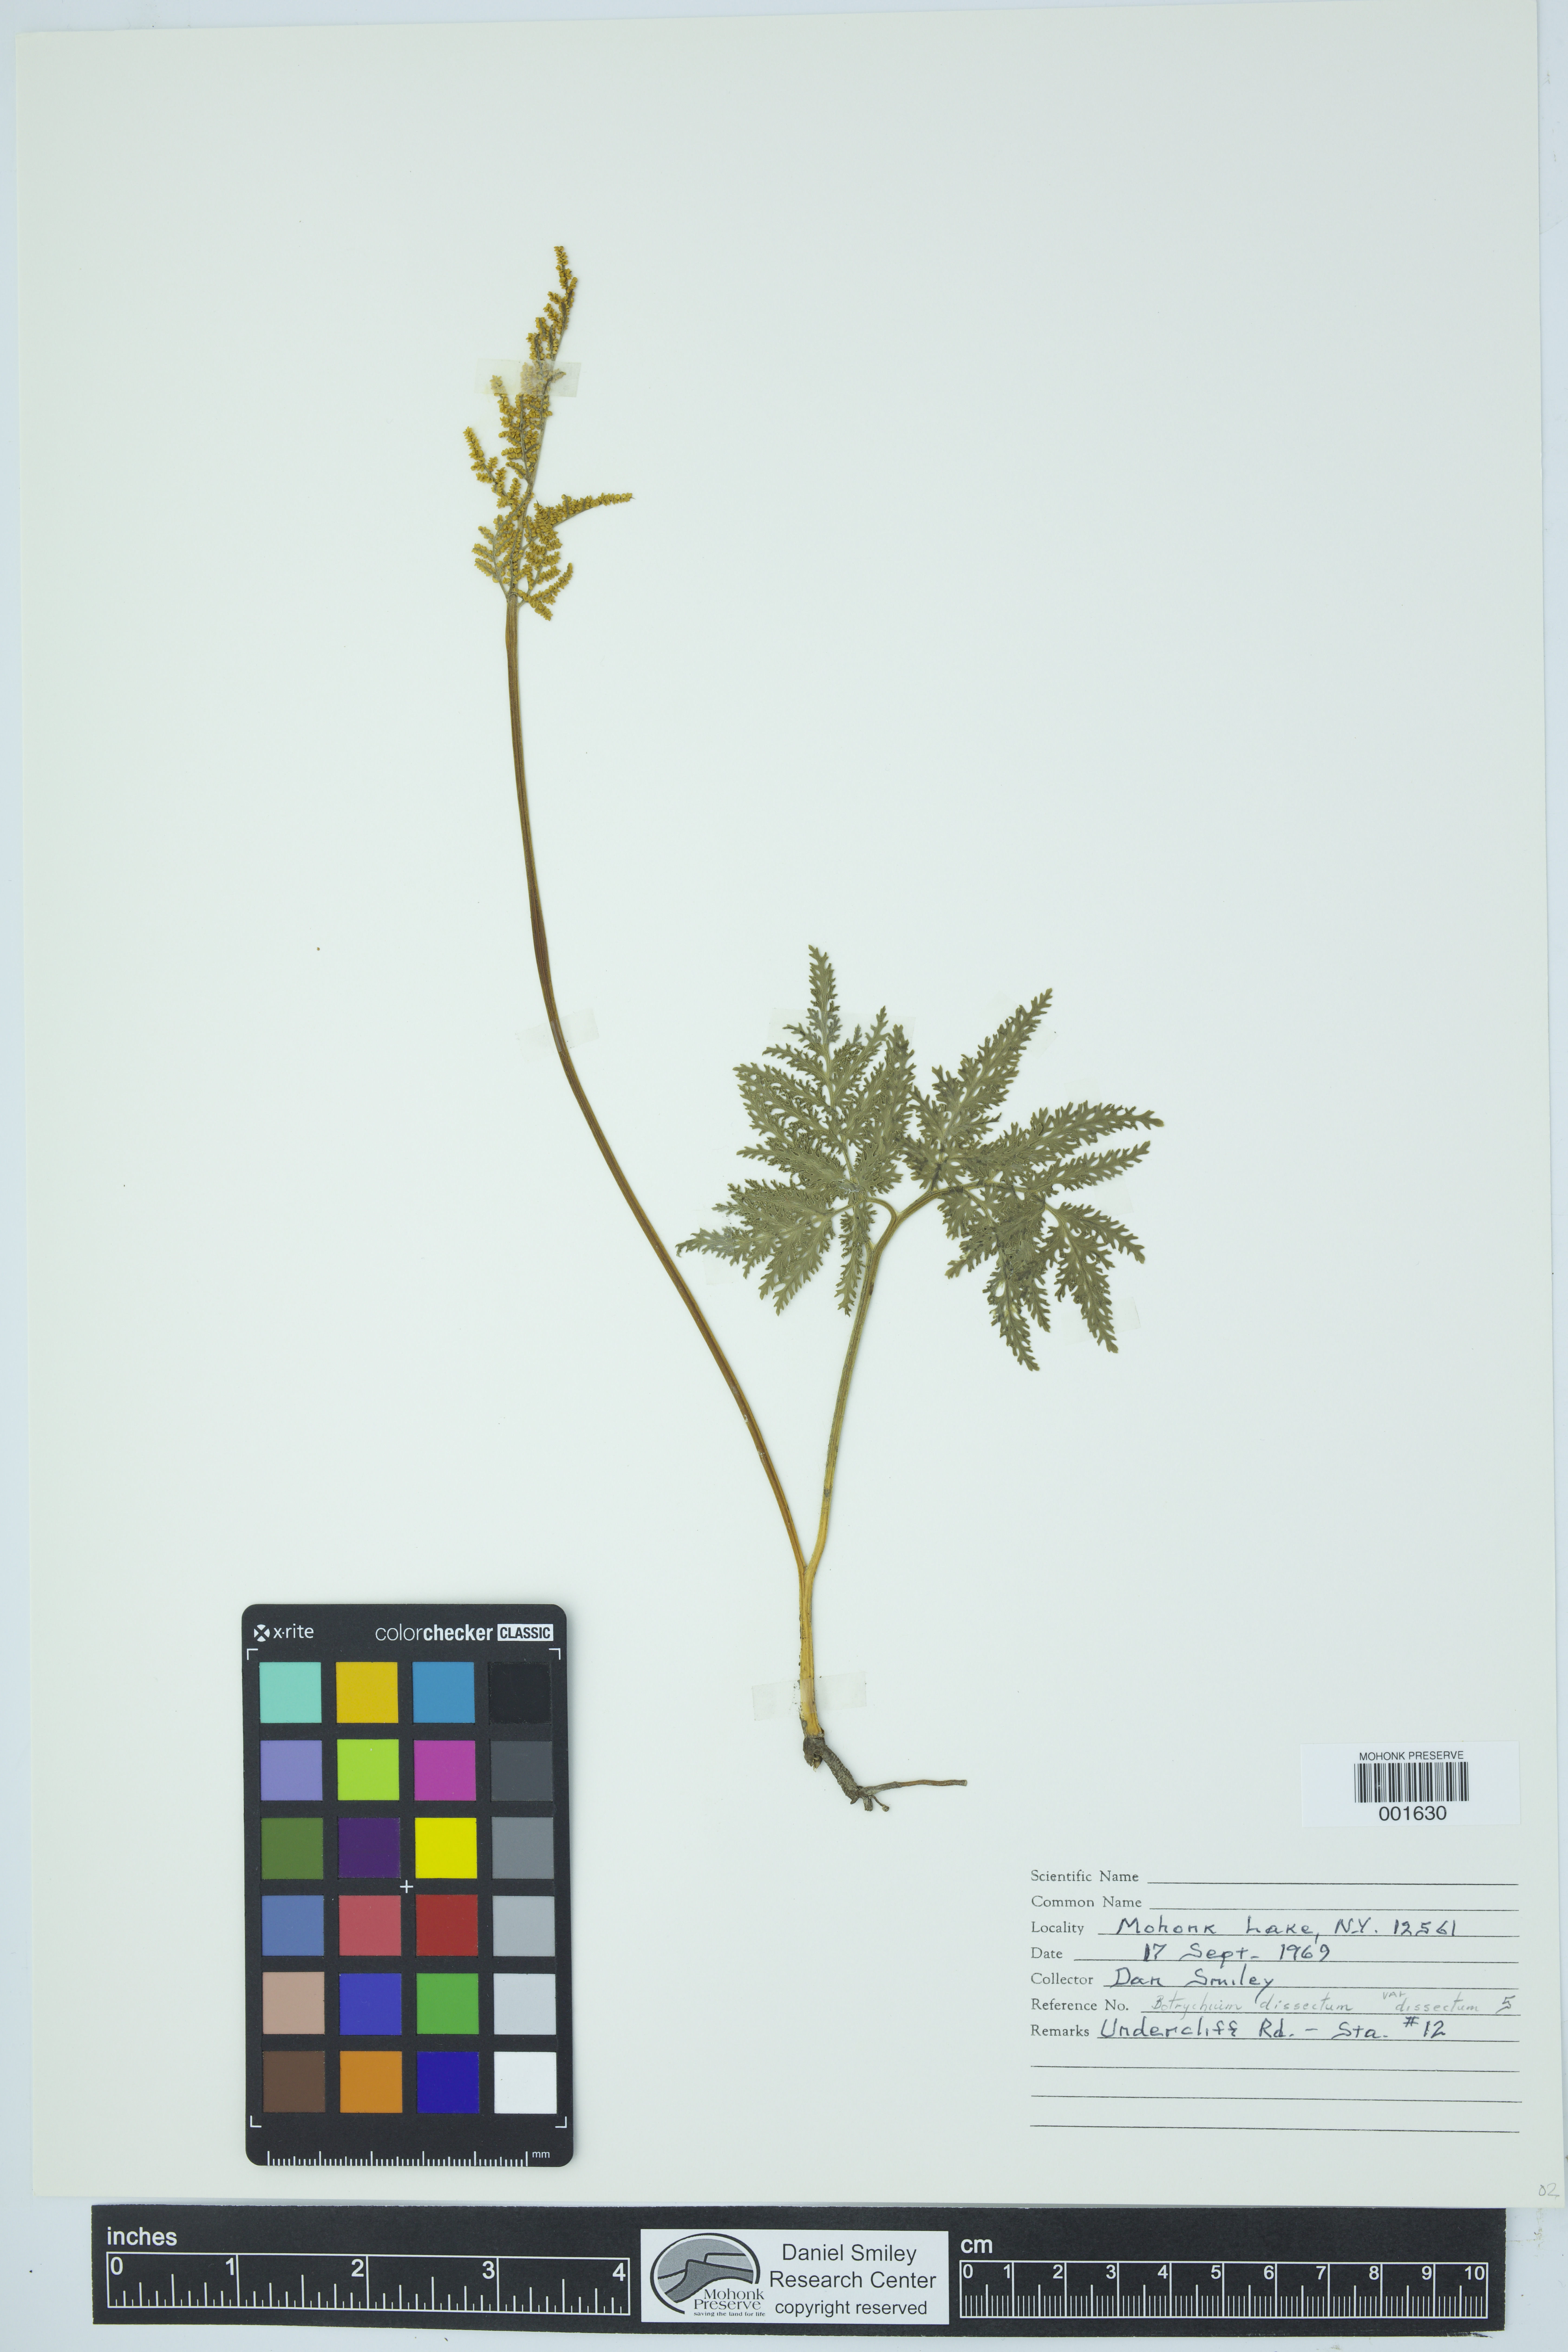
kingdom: Plantae
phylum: Tracheophyta
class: Polypodiopsida
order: Ophioglossales
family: Ophioglossaceae
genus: Sceptridium
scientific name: Sceptridium dissectum
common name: Cut-leaved grapefern
